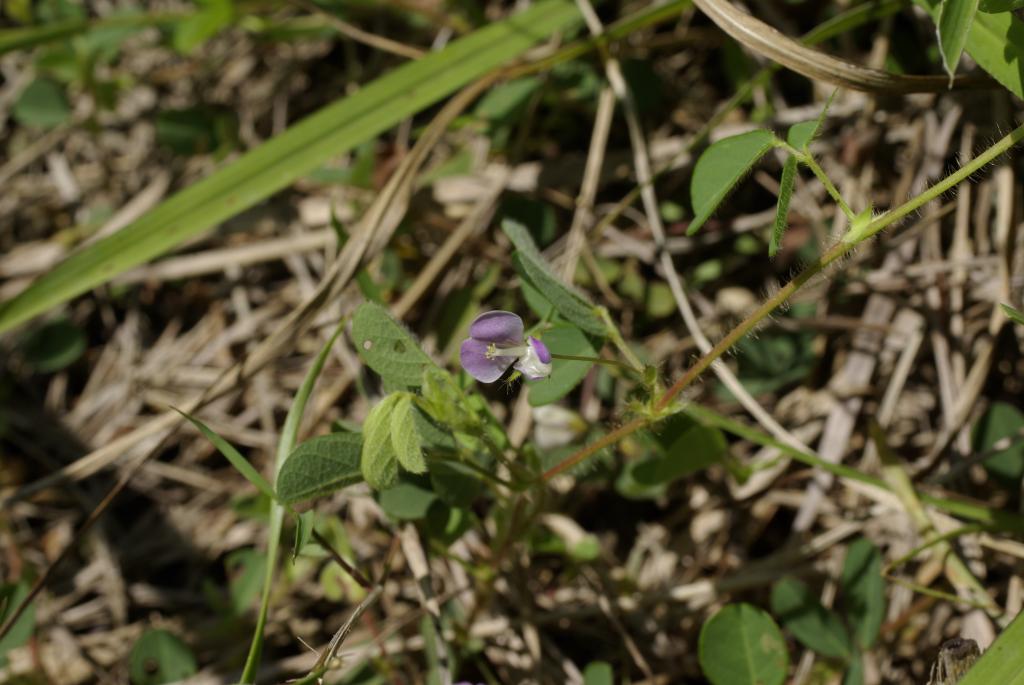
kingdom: Plantae
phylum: Tracheophyta
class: Magnoliopsida
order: Fabales
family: Fabaceae
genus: Grona
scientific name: Grona heterophylla
